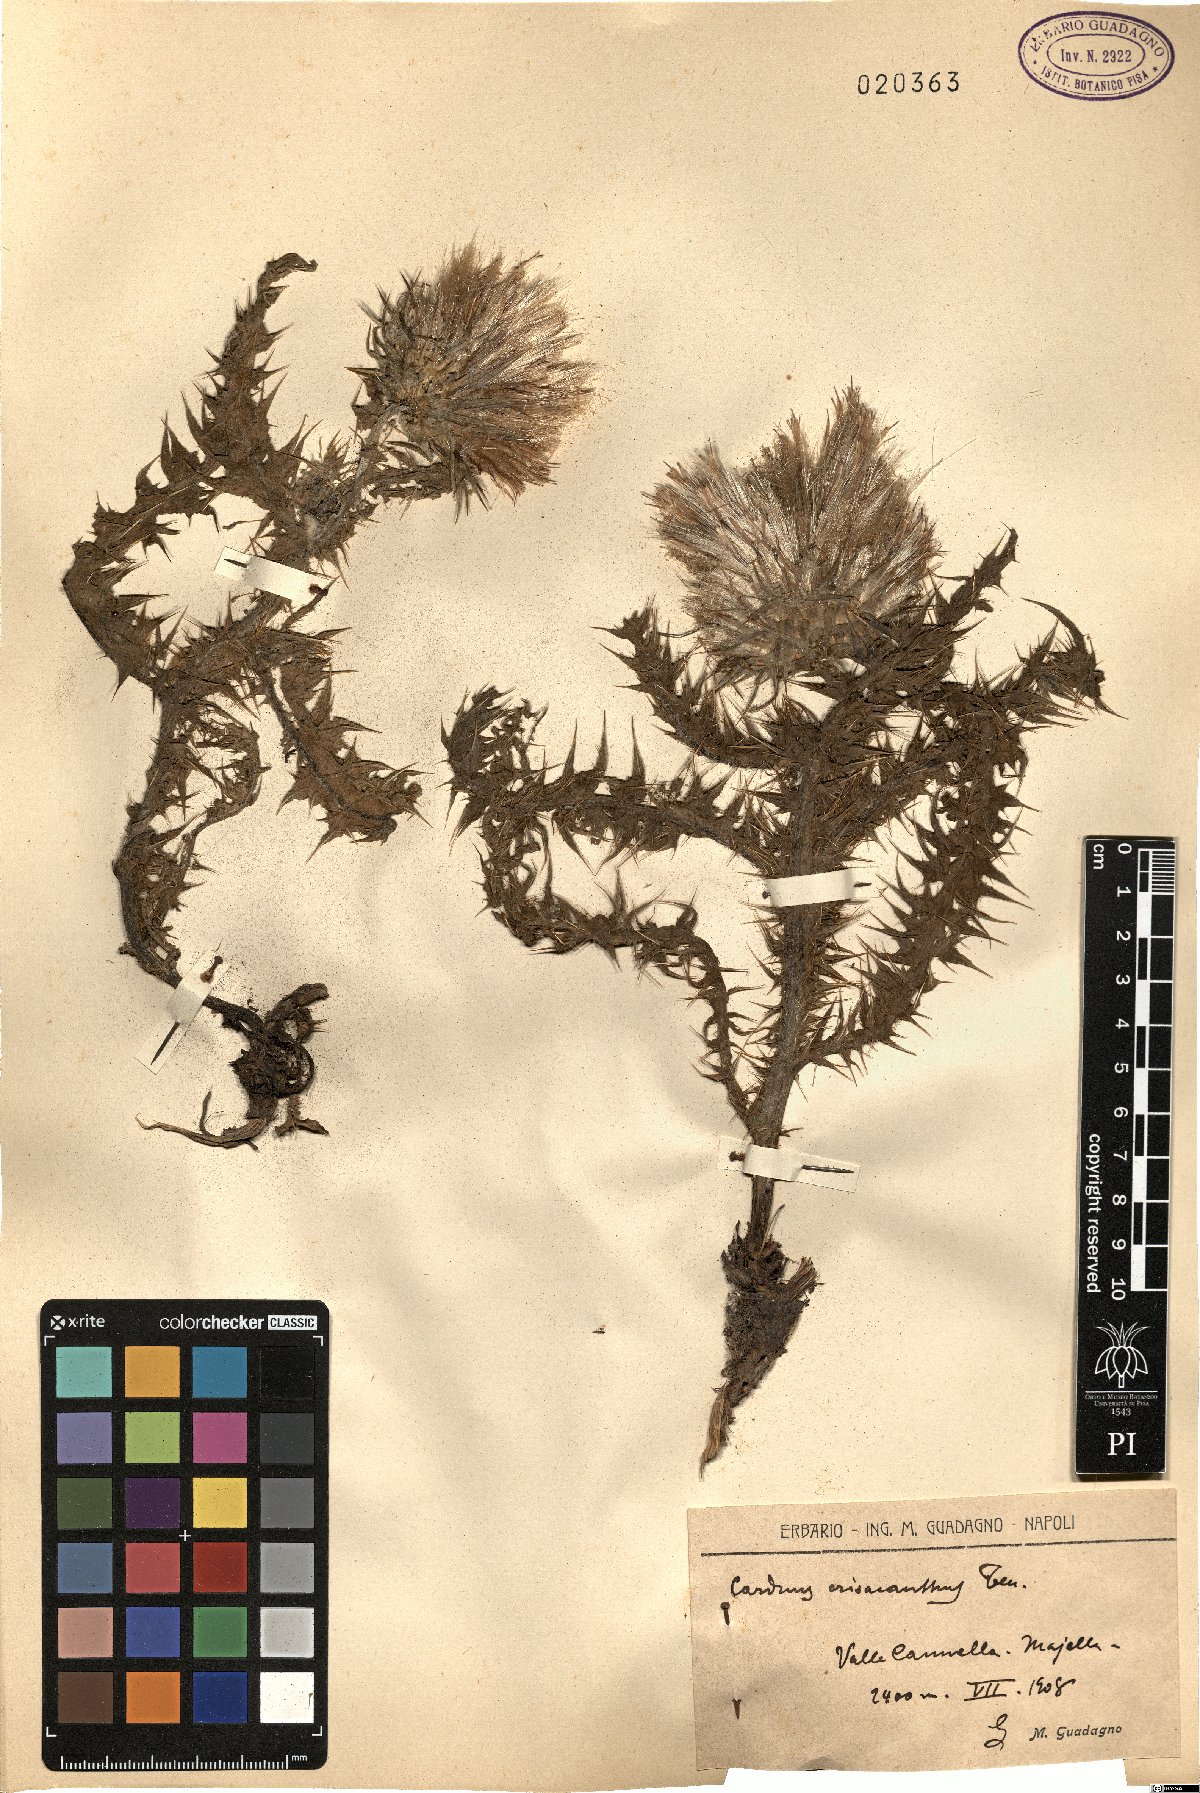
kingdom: Plantae
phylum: Tracheophyta
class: Magnoliopsida
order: Asterales
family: Asteraceae
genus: Carduus
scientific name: Carduus chrysacanthus
